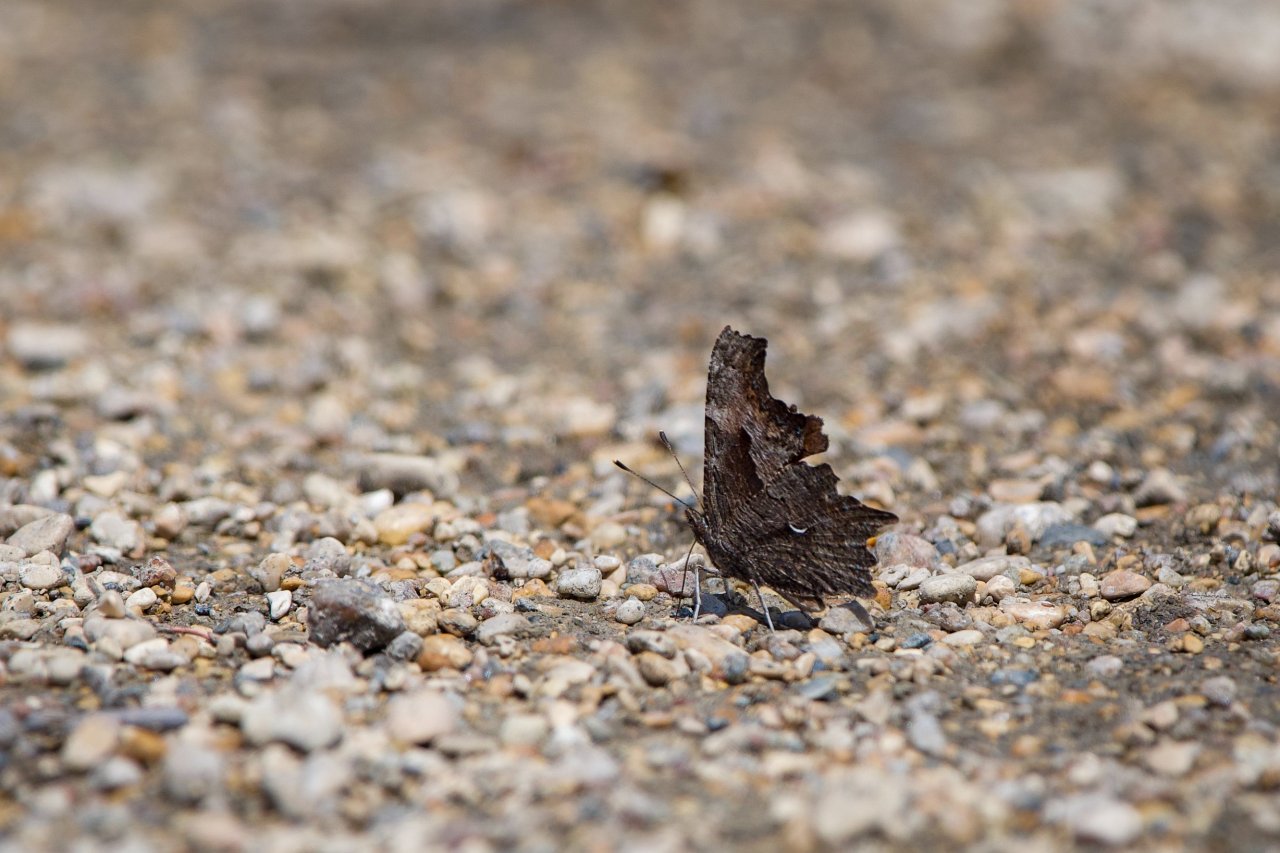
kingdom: Animalia
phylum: Arthropoda
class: Insecta
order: Lepidoptera
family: Nymphalidae
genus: Polygonia
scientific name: Polygonia progne
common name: Gray Comma
